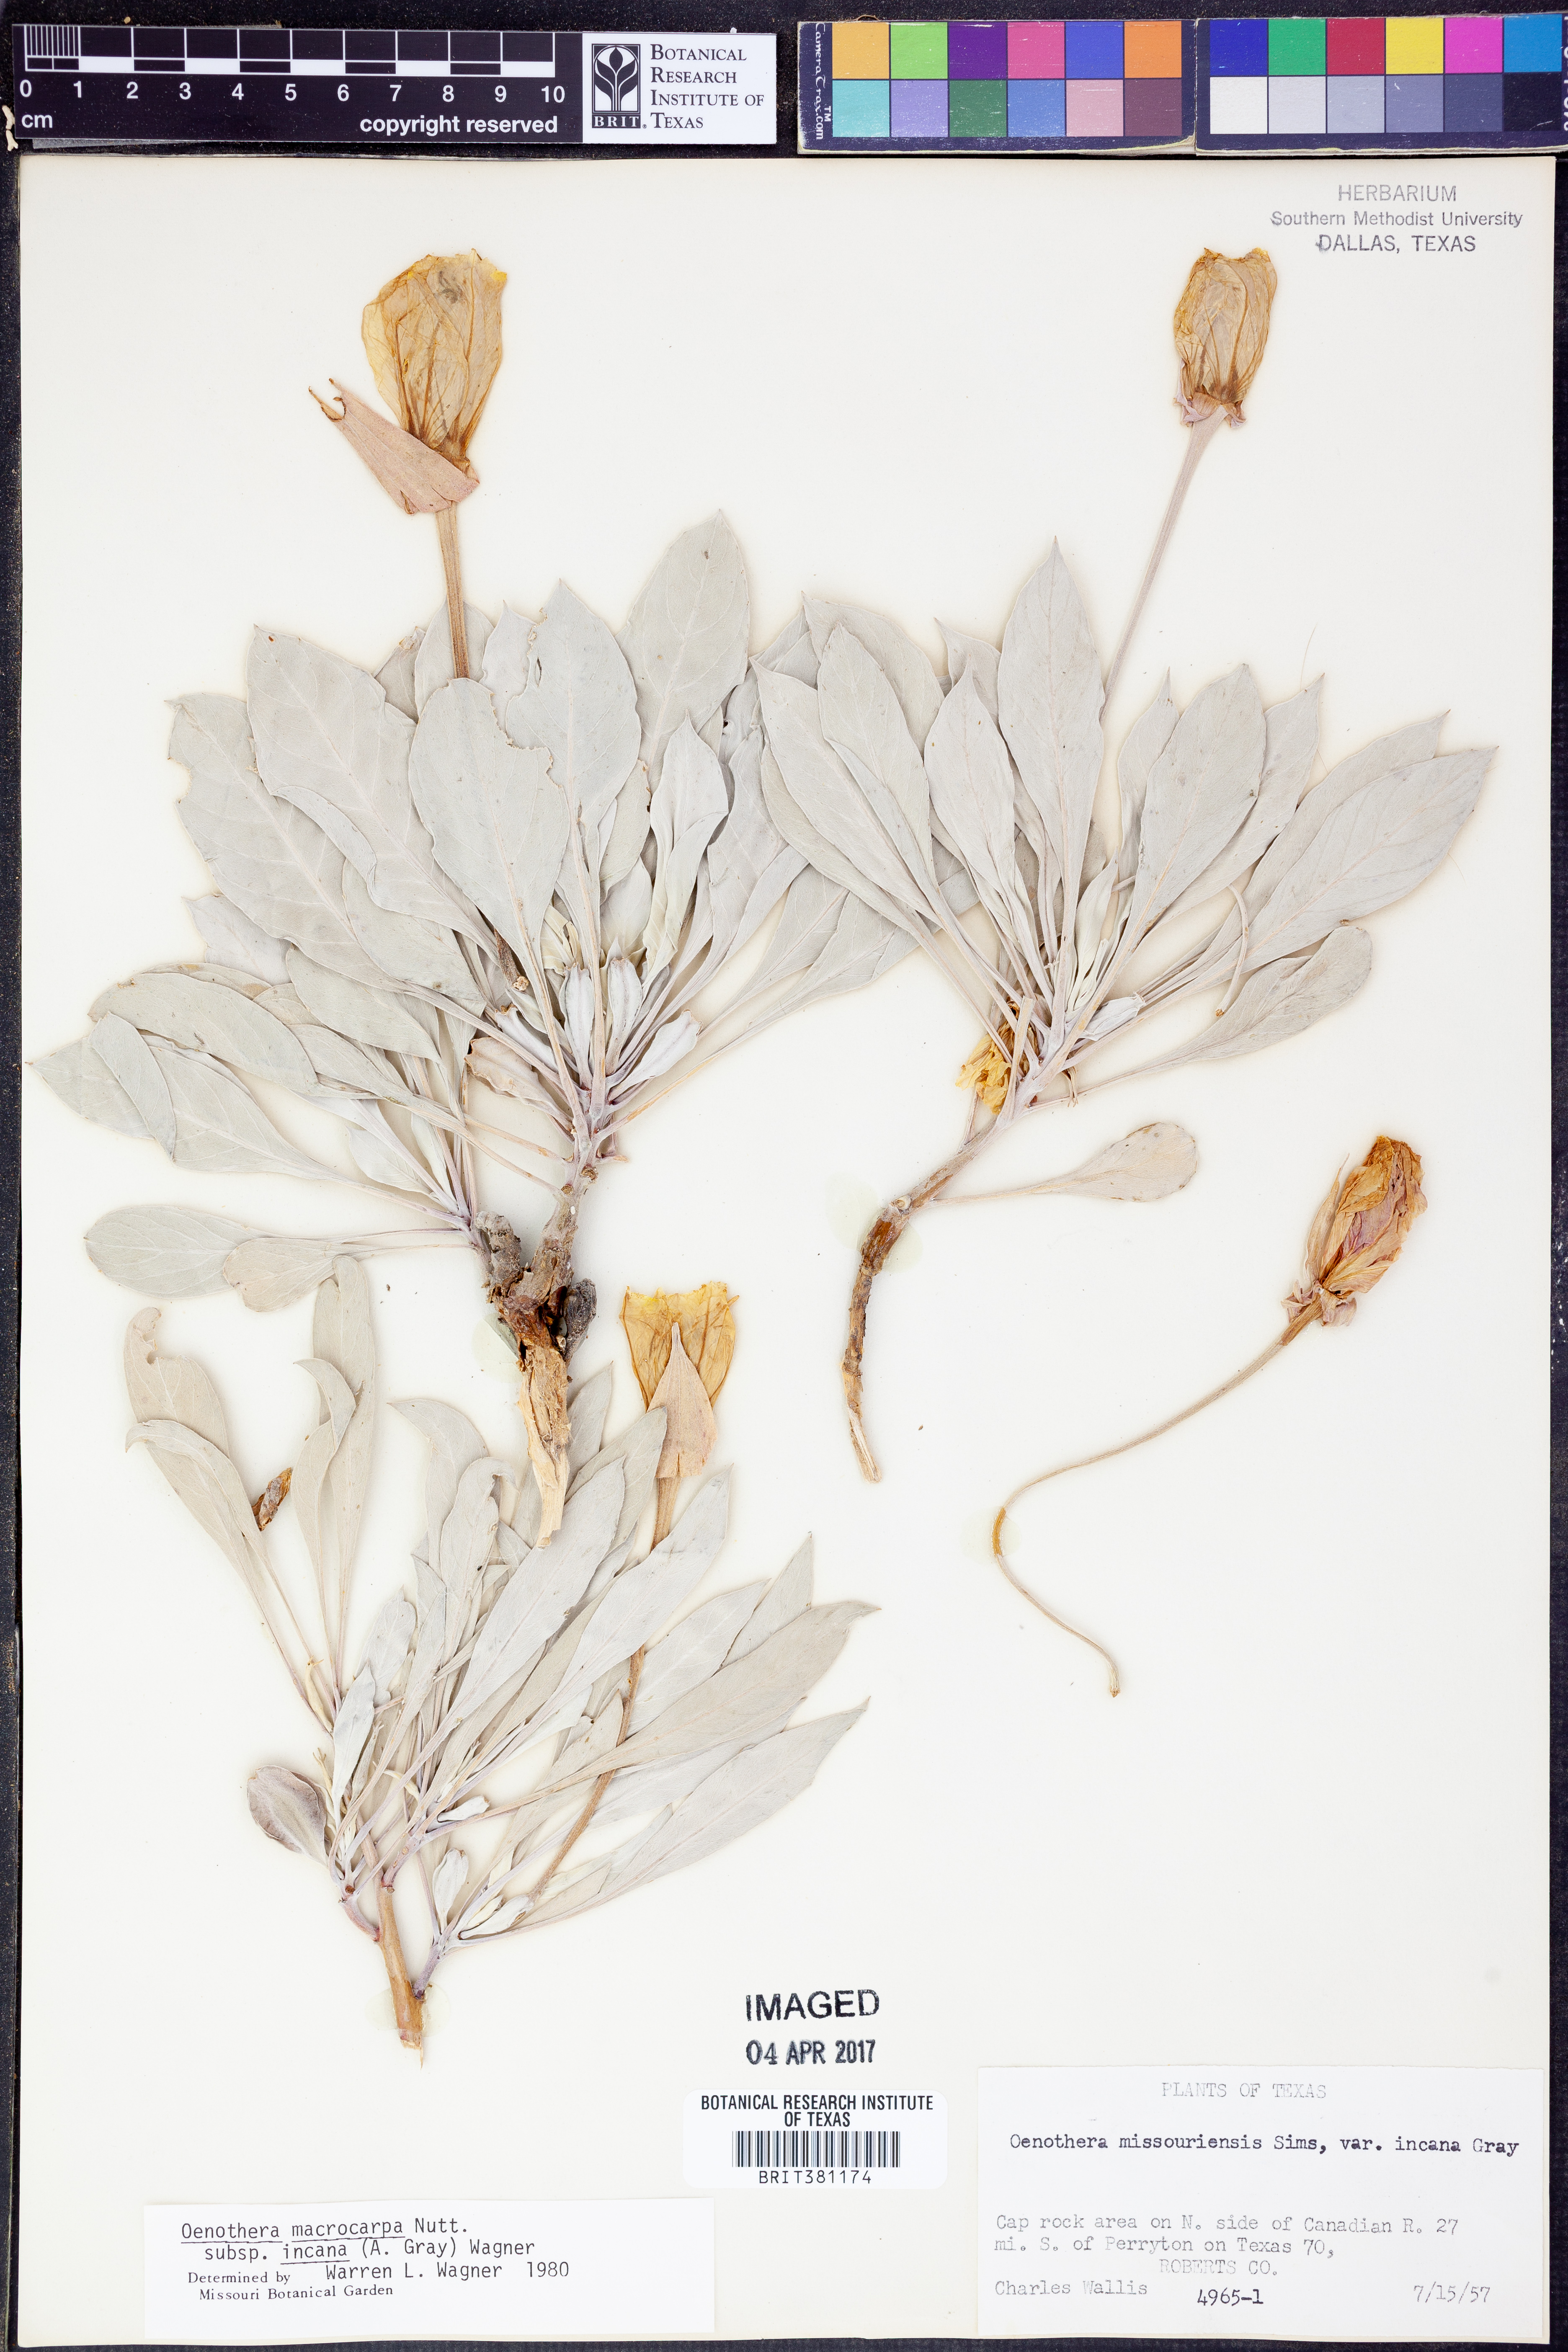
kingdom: Plantae
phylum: Tracheophyta
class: Magnoliopsida
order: Myrtales
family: Onagraceae
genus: Oenothera
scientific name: Oenothera macrocarpa
